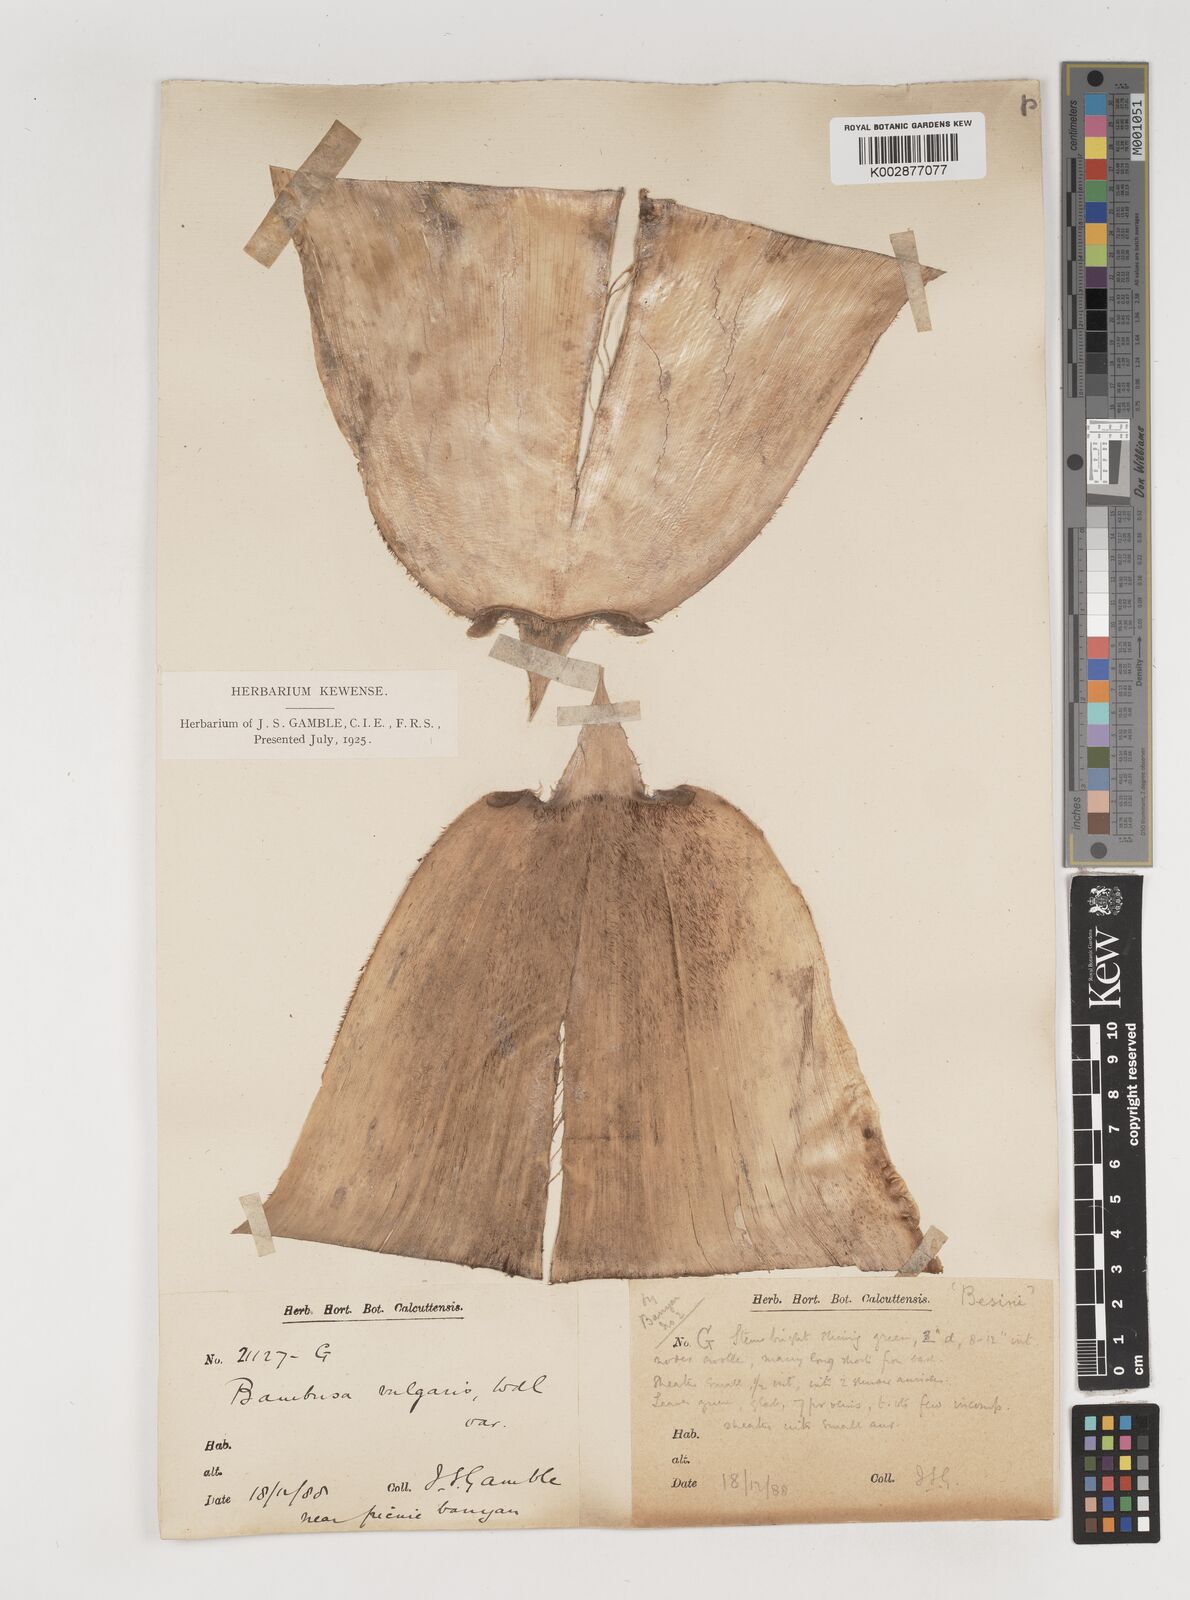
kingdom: Plantae
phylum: Tracheophyta
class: Liliopsida
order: Poales
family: Poaceae
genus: Bambusa
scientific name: Bambusa balcooa
